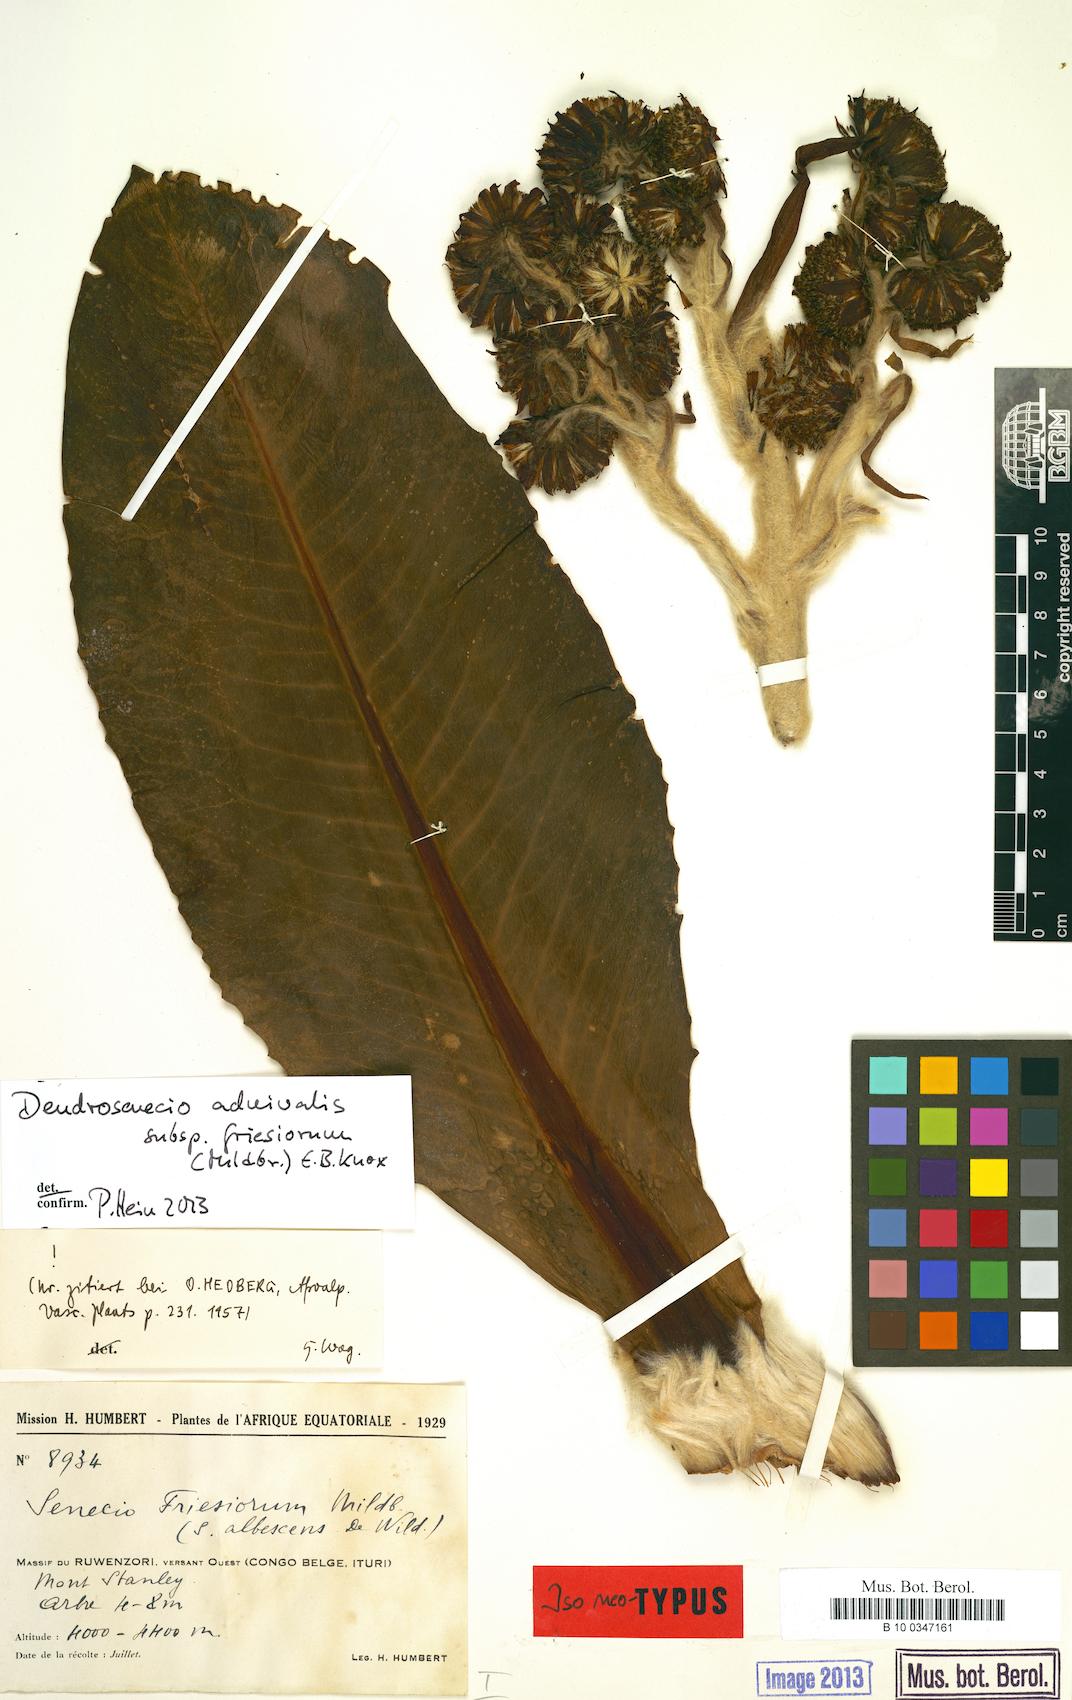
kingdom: Plantae
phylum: Tracheophyta
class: Magnoliopsida
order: Asterales
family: Asteraceae
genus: Dendrosenecio
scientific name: Dendrosenecio adnivalis
